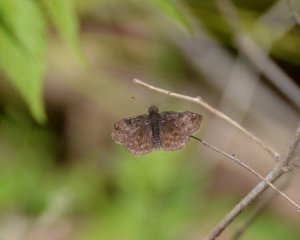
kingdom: Animalia
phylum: Arthropoda
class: Insecta
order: Lepidoptera
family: Hesperiidae
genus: Erynnis
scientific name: Erynnis icelus
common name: Dreamy Duskywing
